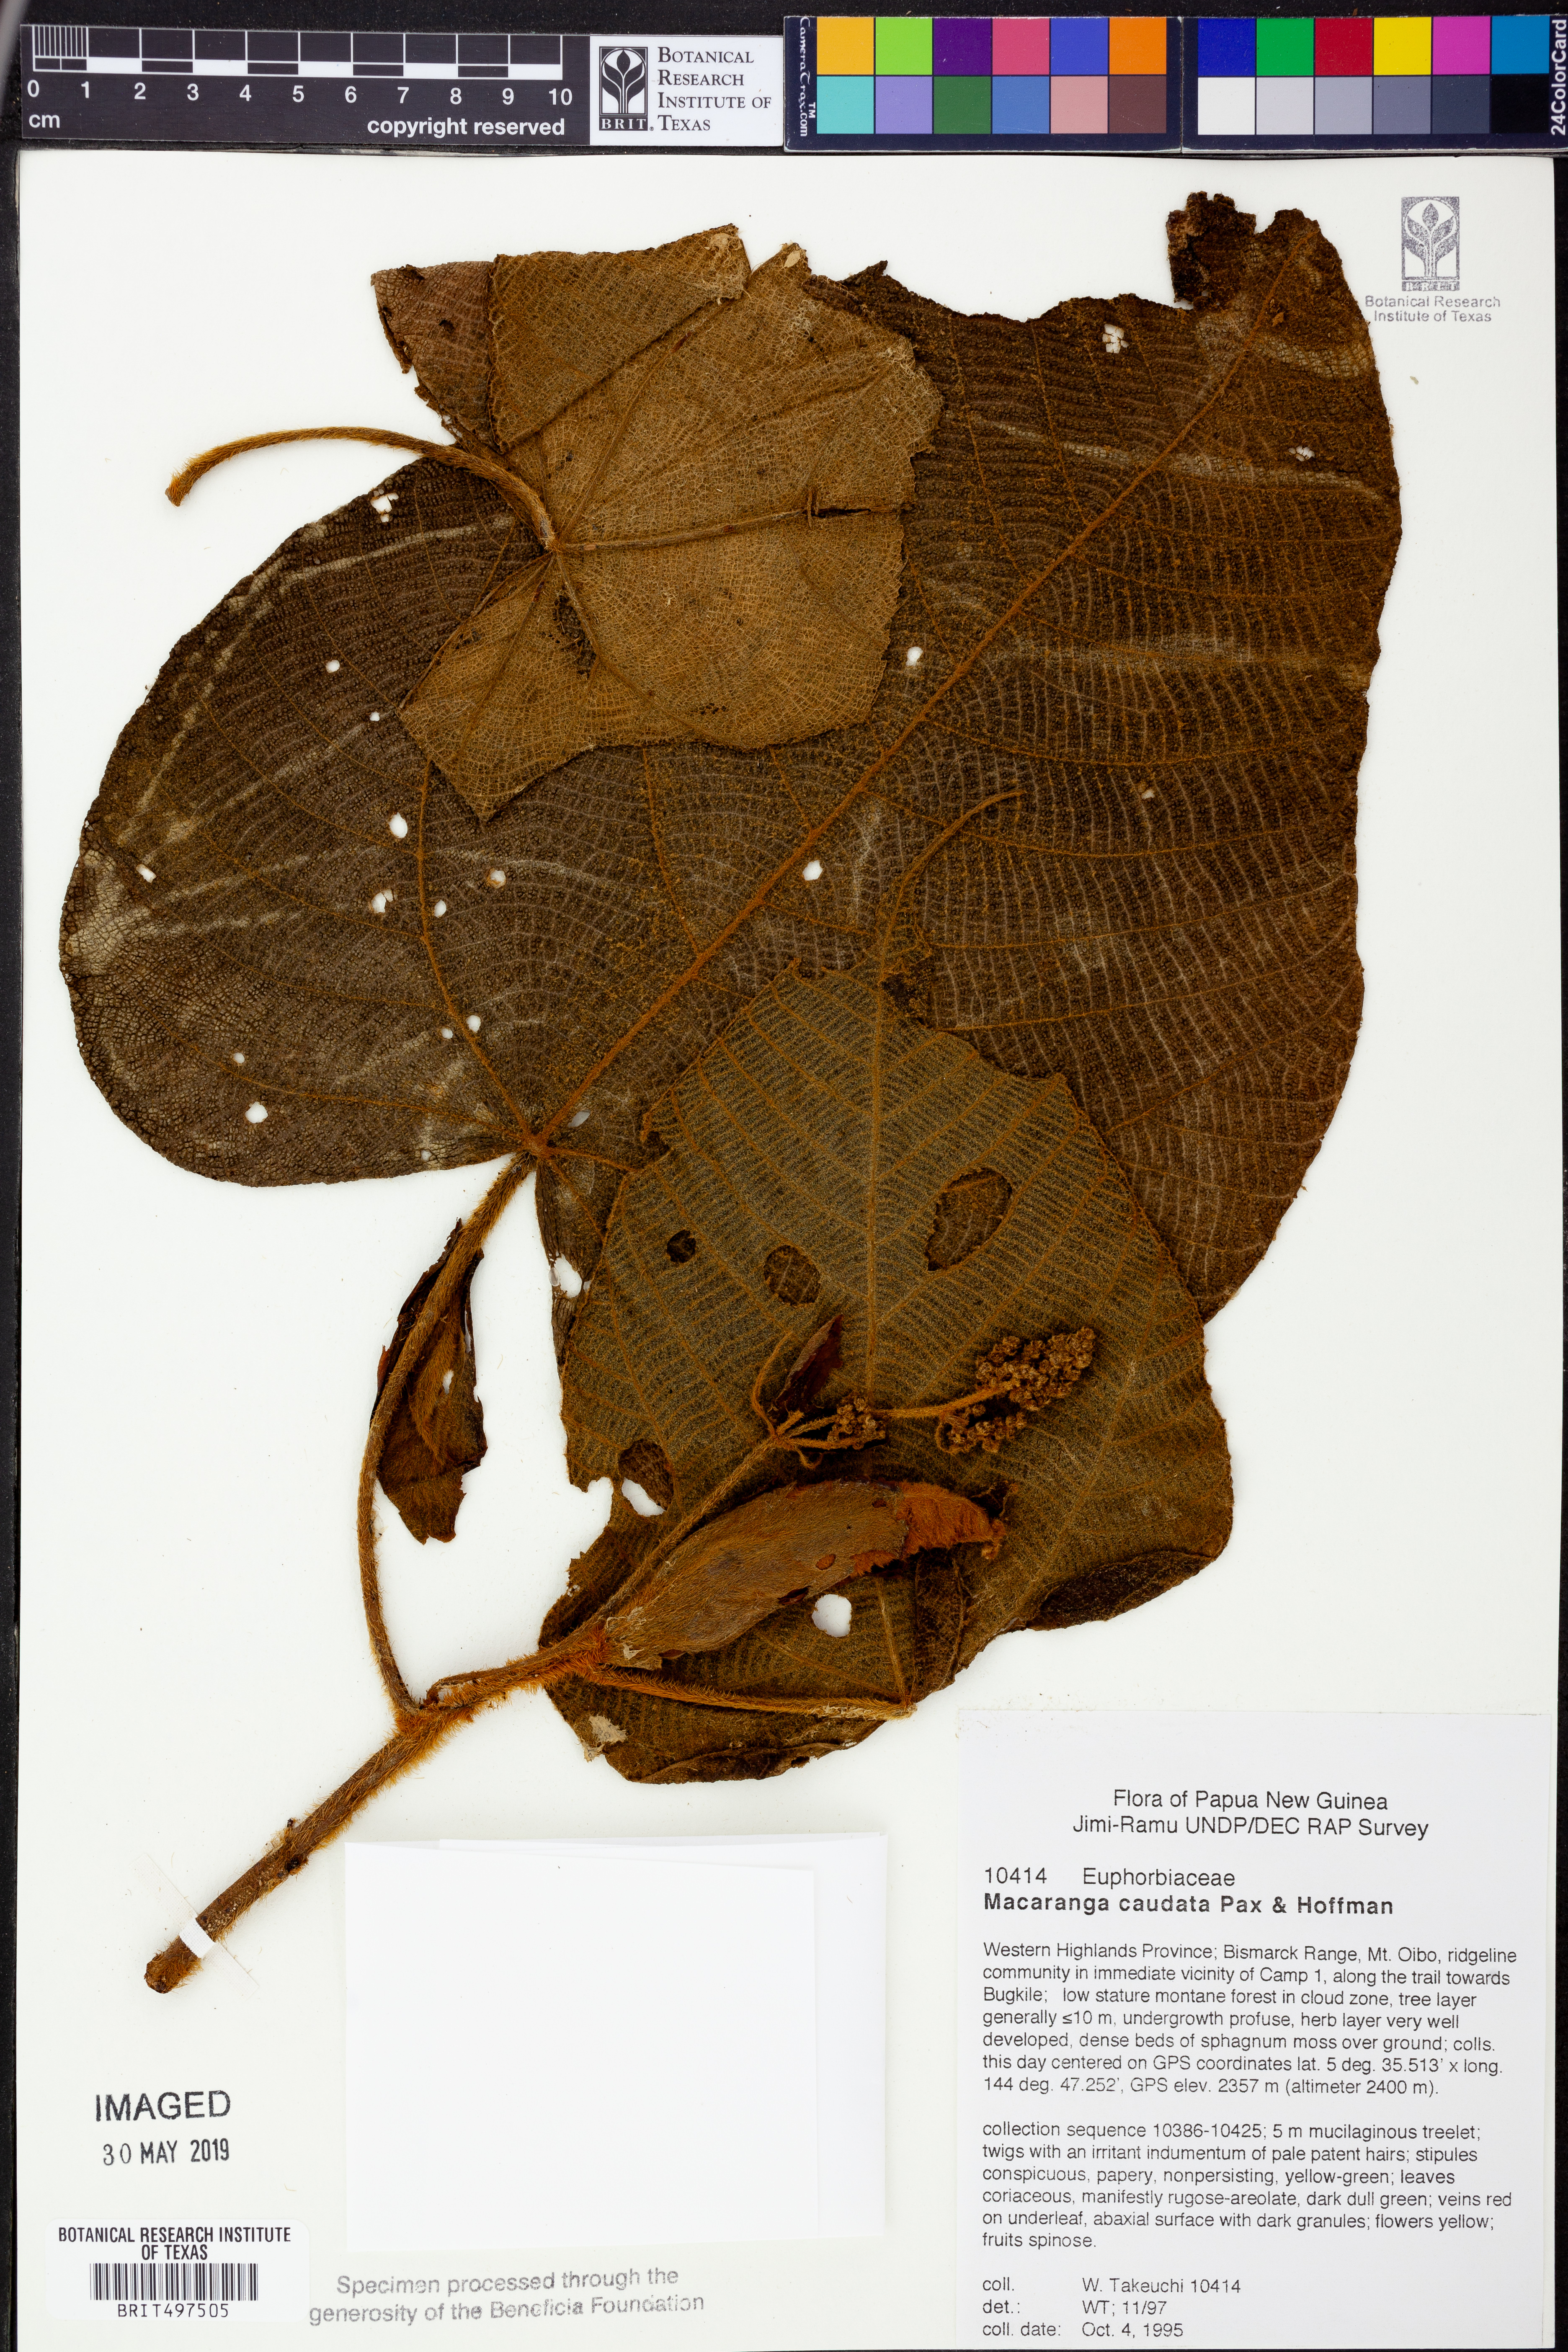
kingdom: Plantae
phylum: Tracheophyta
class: Magnoliopsida
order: Malpighiales
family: Euphorbiaceae
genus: Macaranga
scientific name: Macaranga caudata
